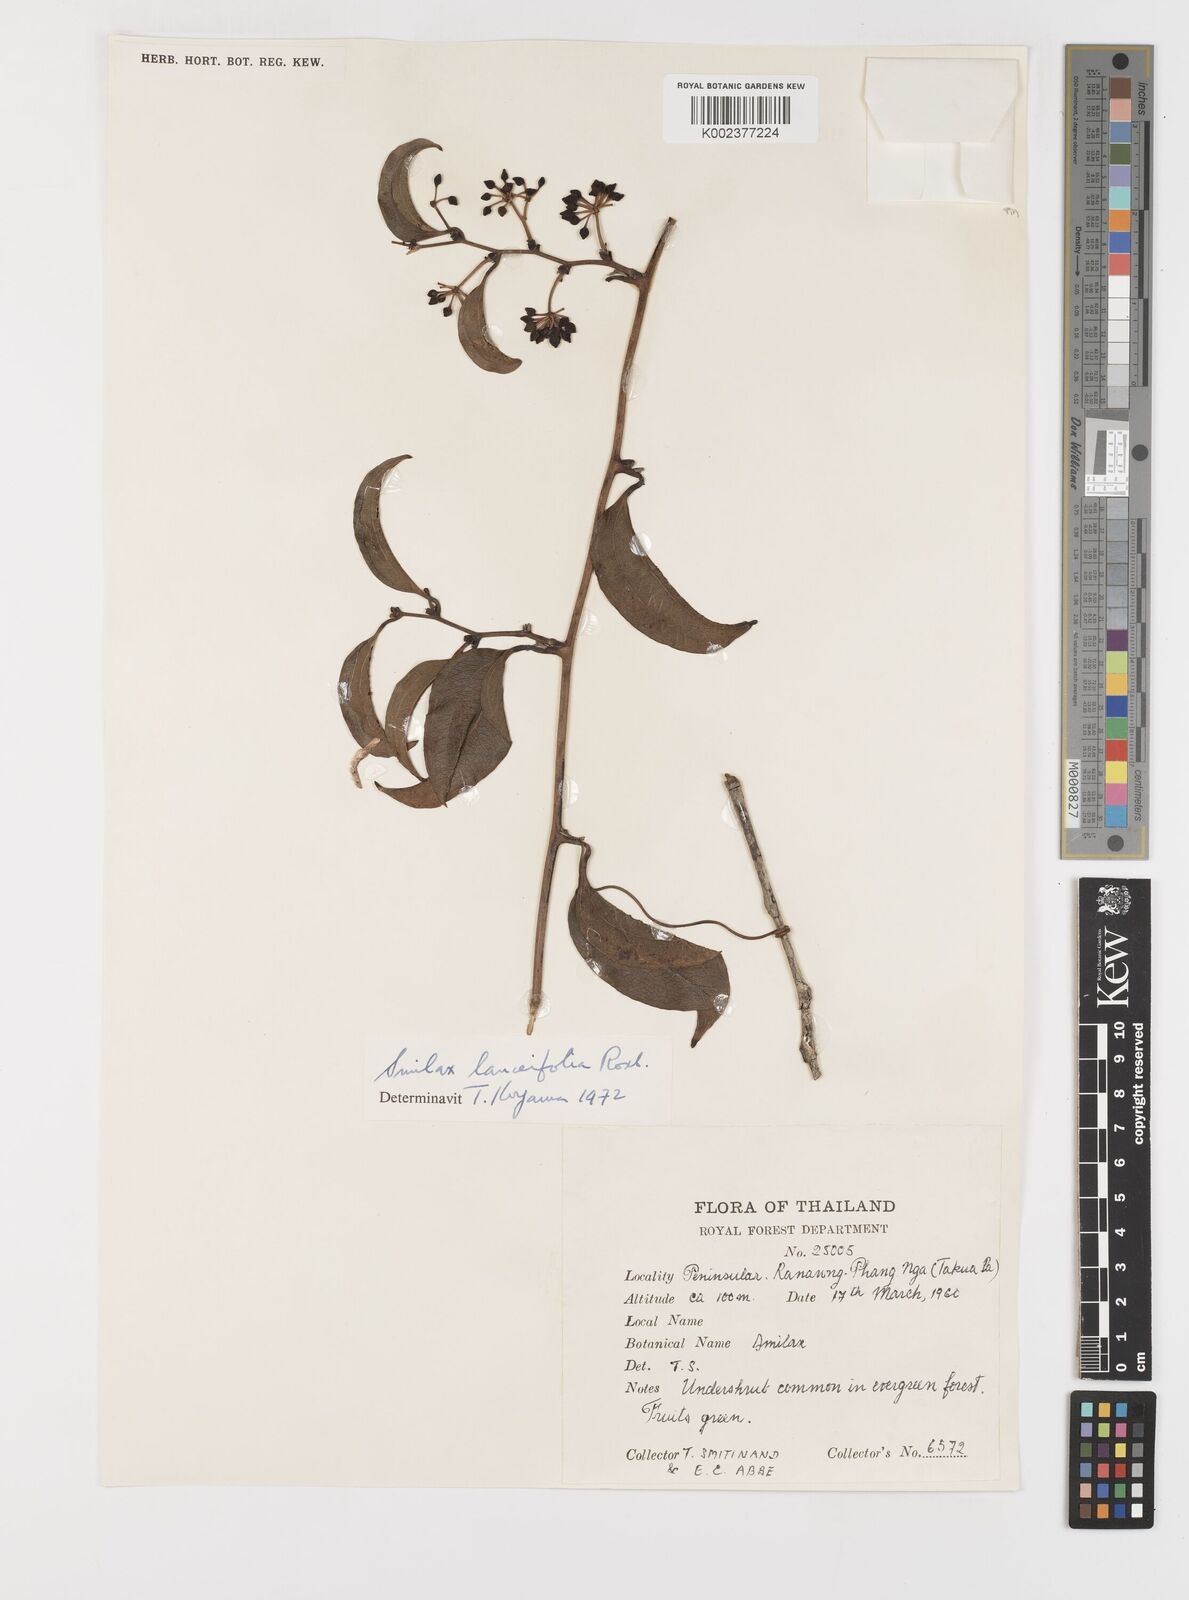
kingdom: Plantae
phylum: Tracheophyta
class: Liliopsida
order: Liliales
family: Smilacaceae
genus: Smilax
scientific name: Smilax lanceifolia
